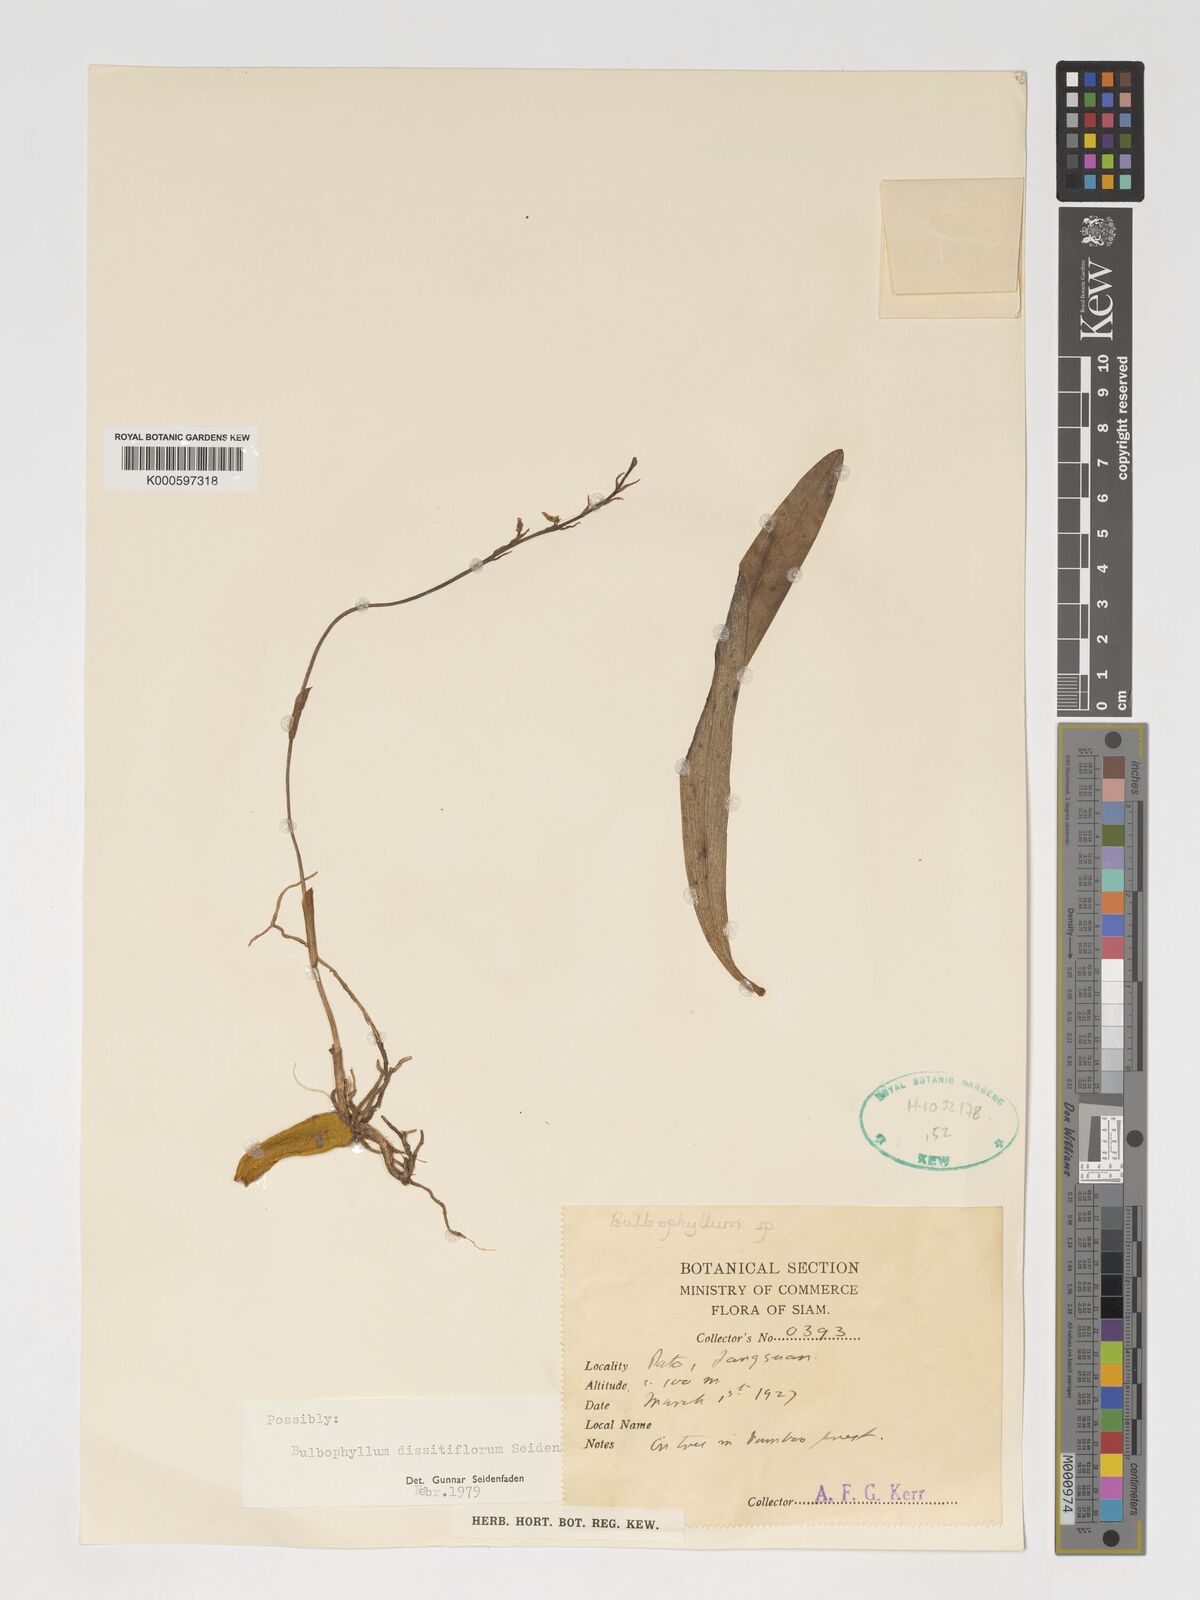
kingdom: Plantae
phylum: Tracheophyta
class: Liliopsida
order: Asparagales
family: Orchidaceae
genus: Bulbophyllum
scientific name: Bulbophyllum dissitiflorum
